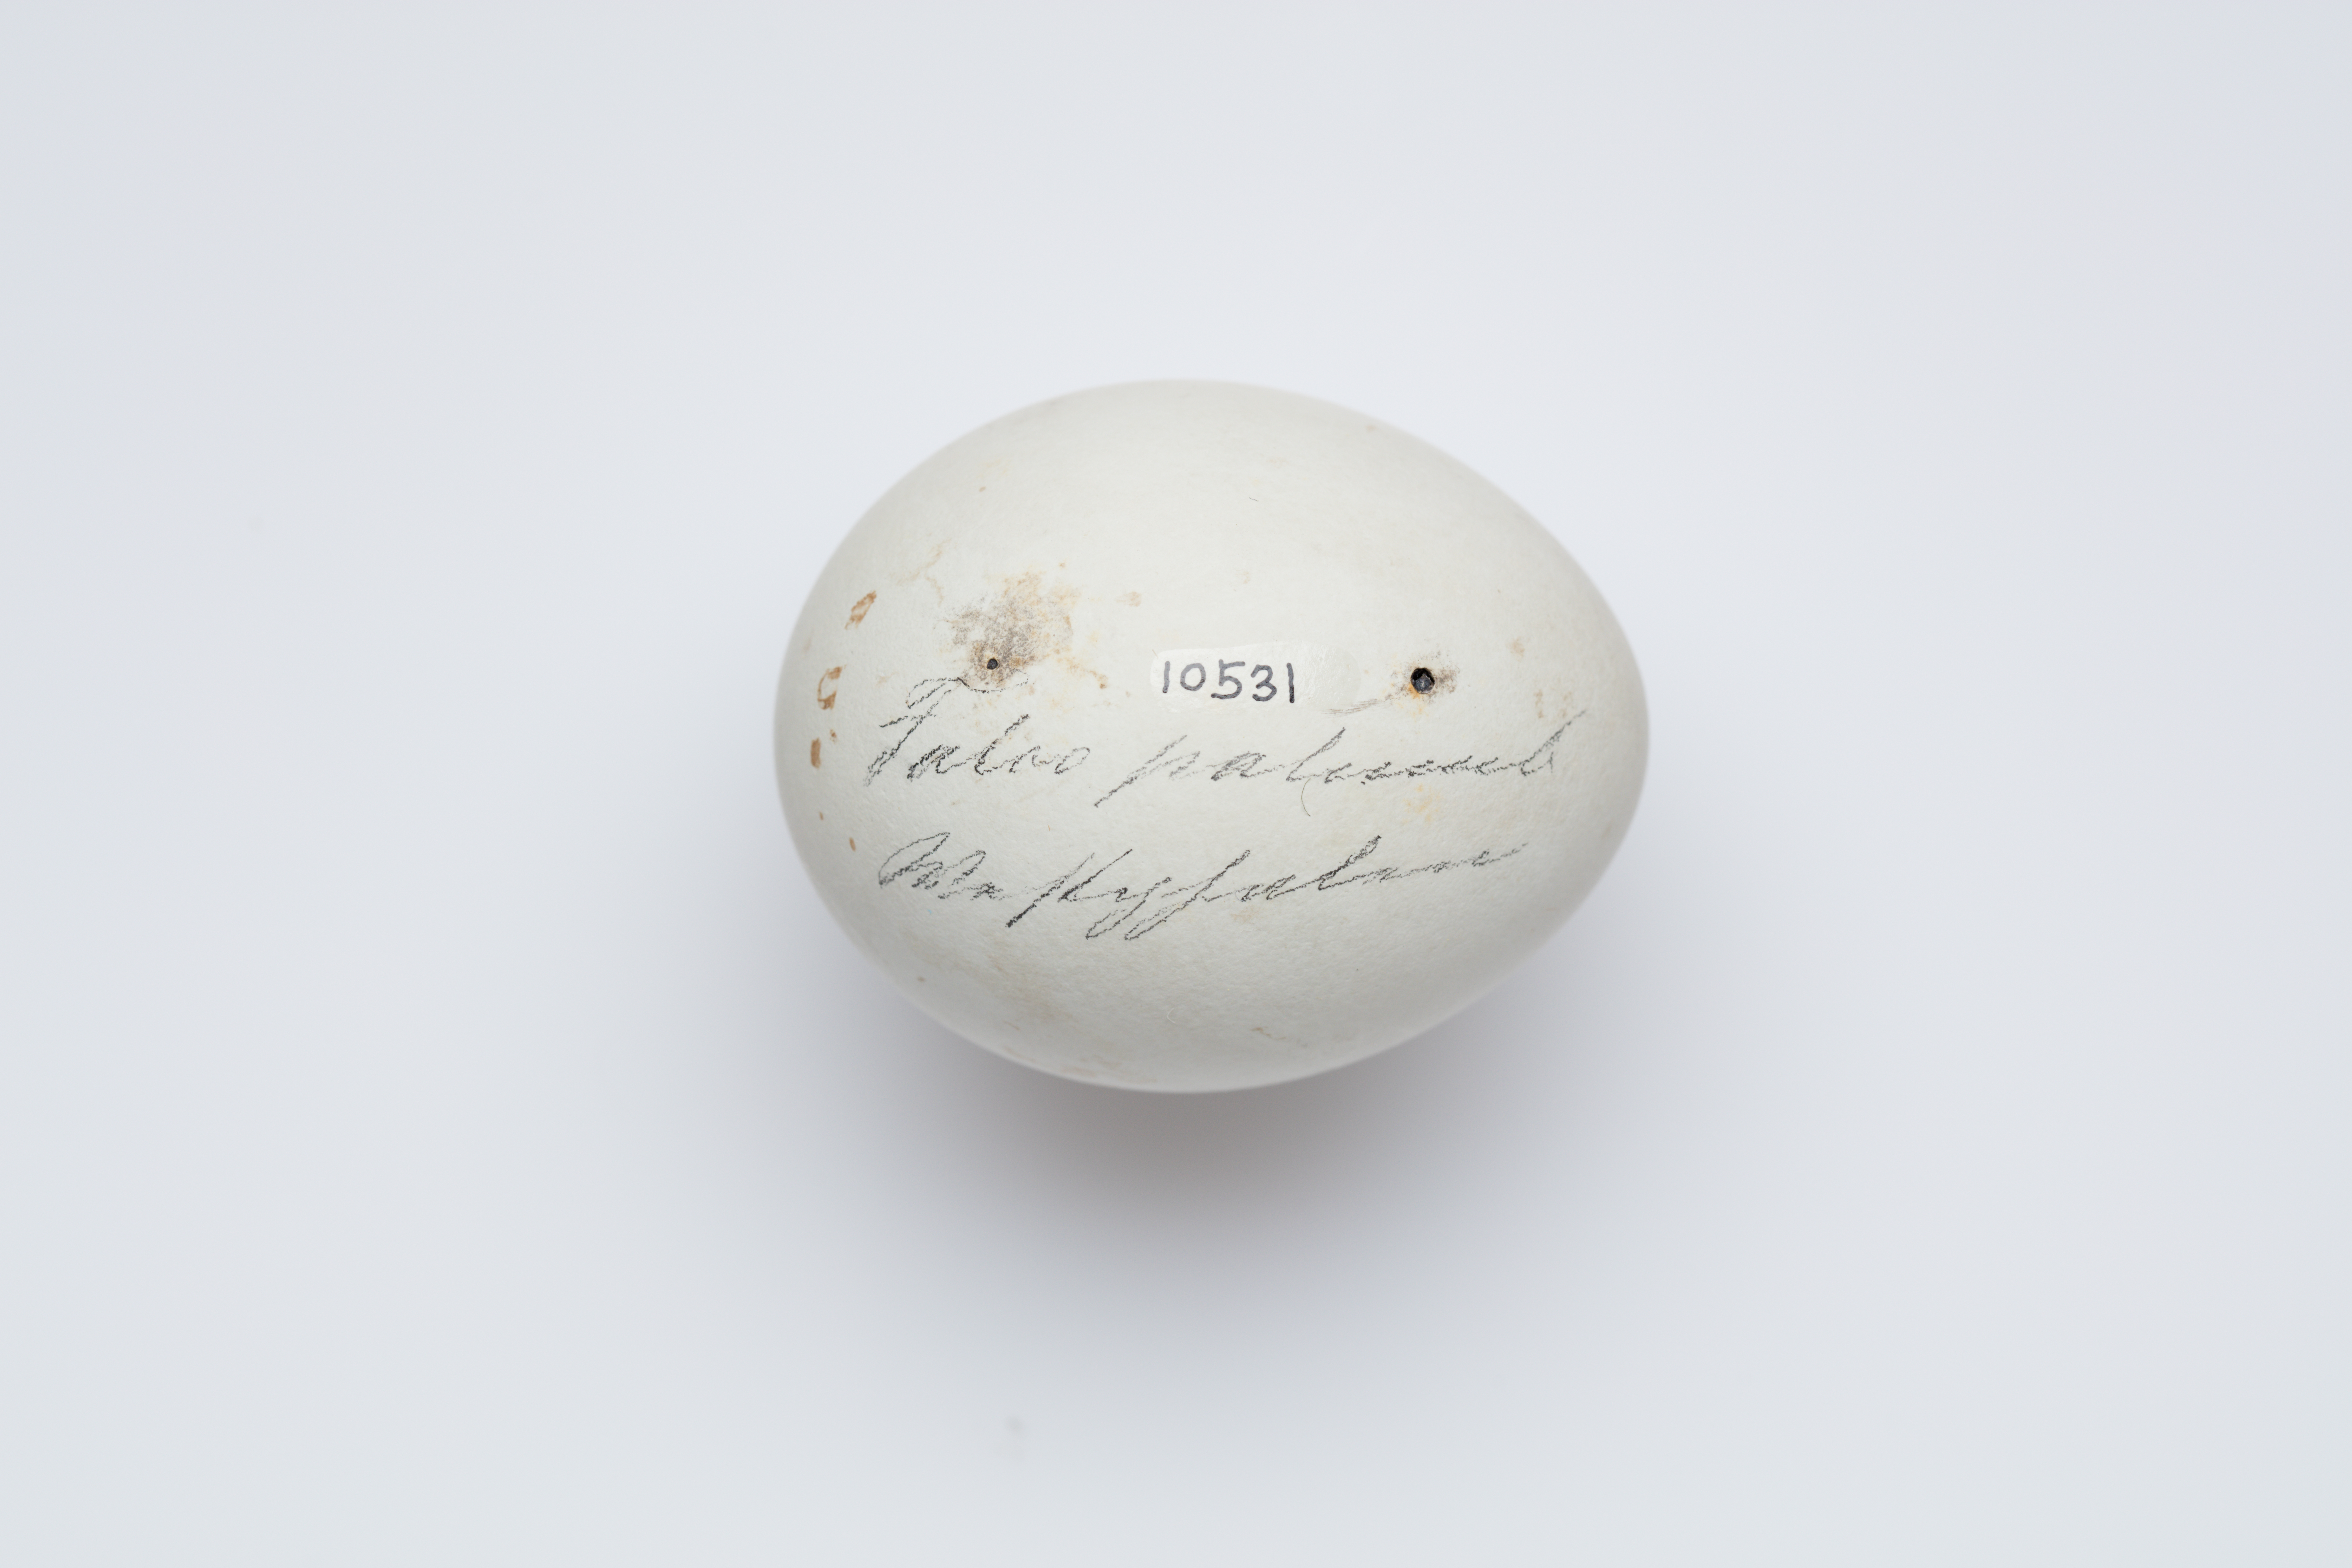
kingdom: Animalia
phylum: Chordata
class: Aves
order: Accipitriformes
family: Accipitridae
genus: Accipiter
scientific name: Accipiter gentilis
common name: Northern goshawk
